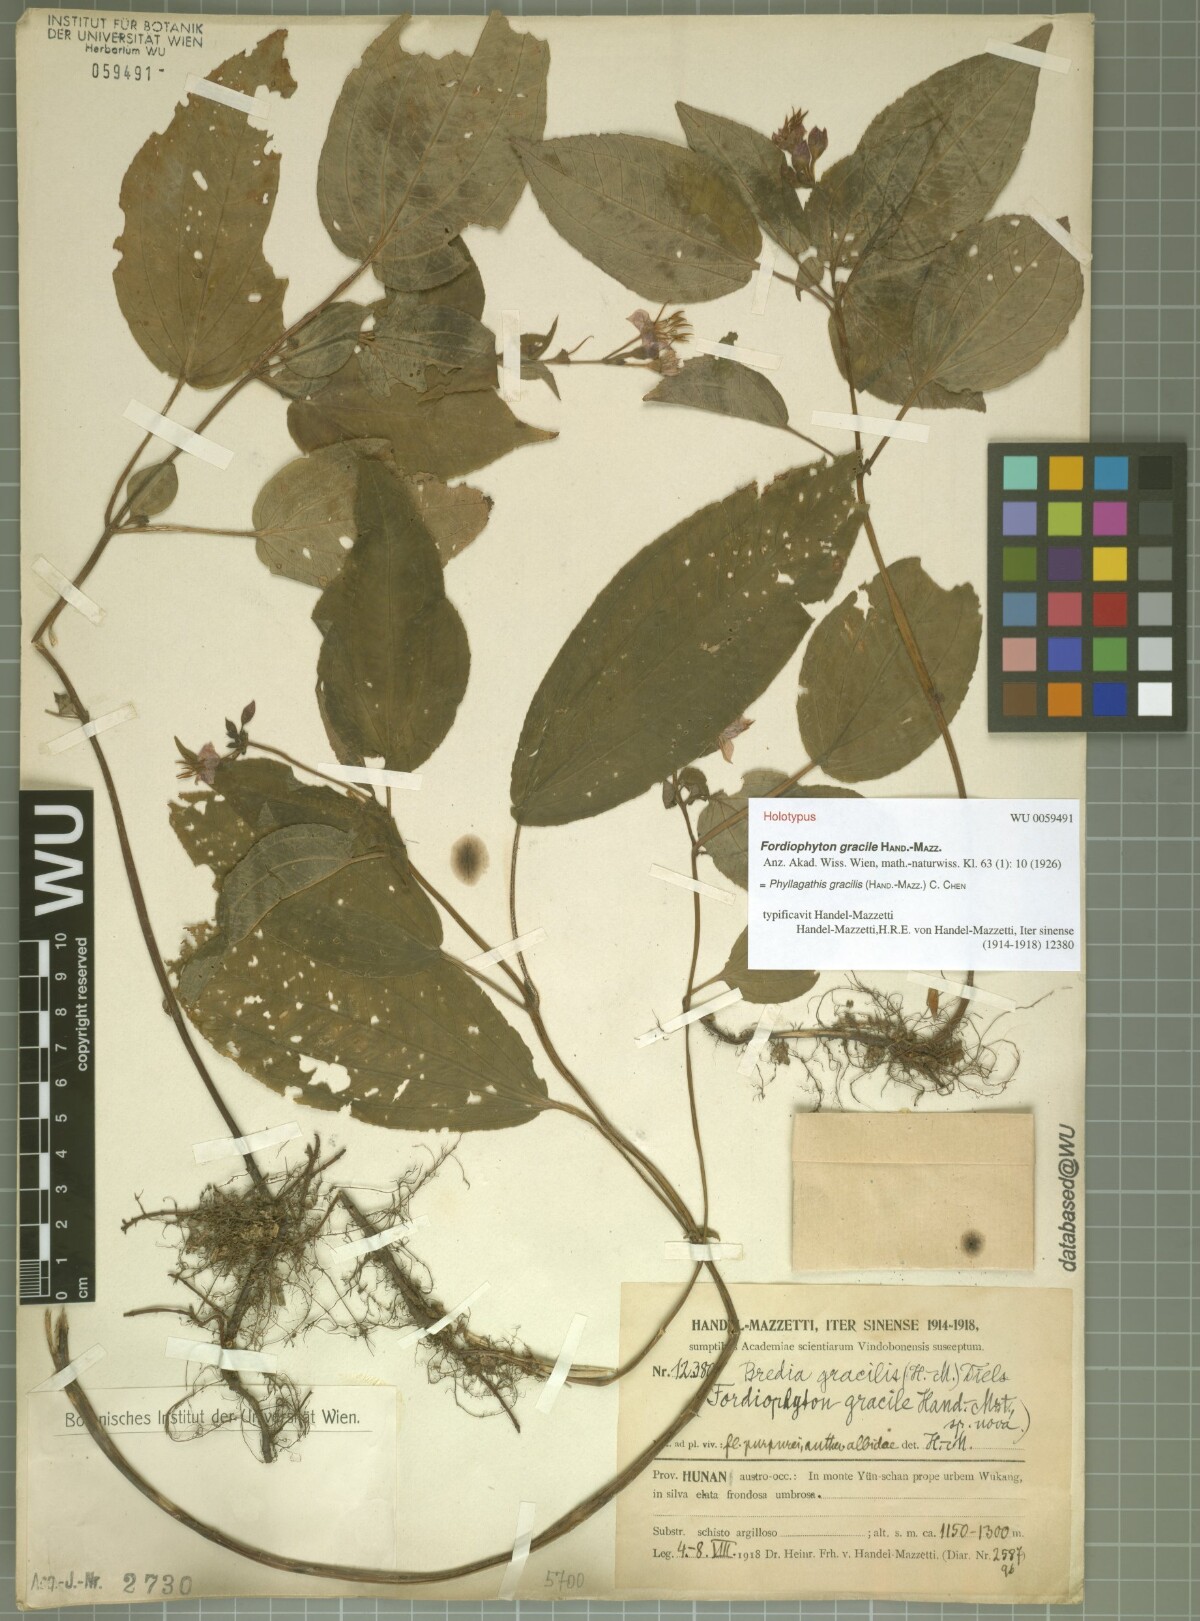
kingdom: Plantae
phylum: Tracheophyta
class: Magnoliopsida
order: Myrtales
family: Melastomataceae
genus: Bredia
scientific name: Bredia gracilis
